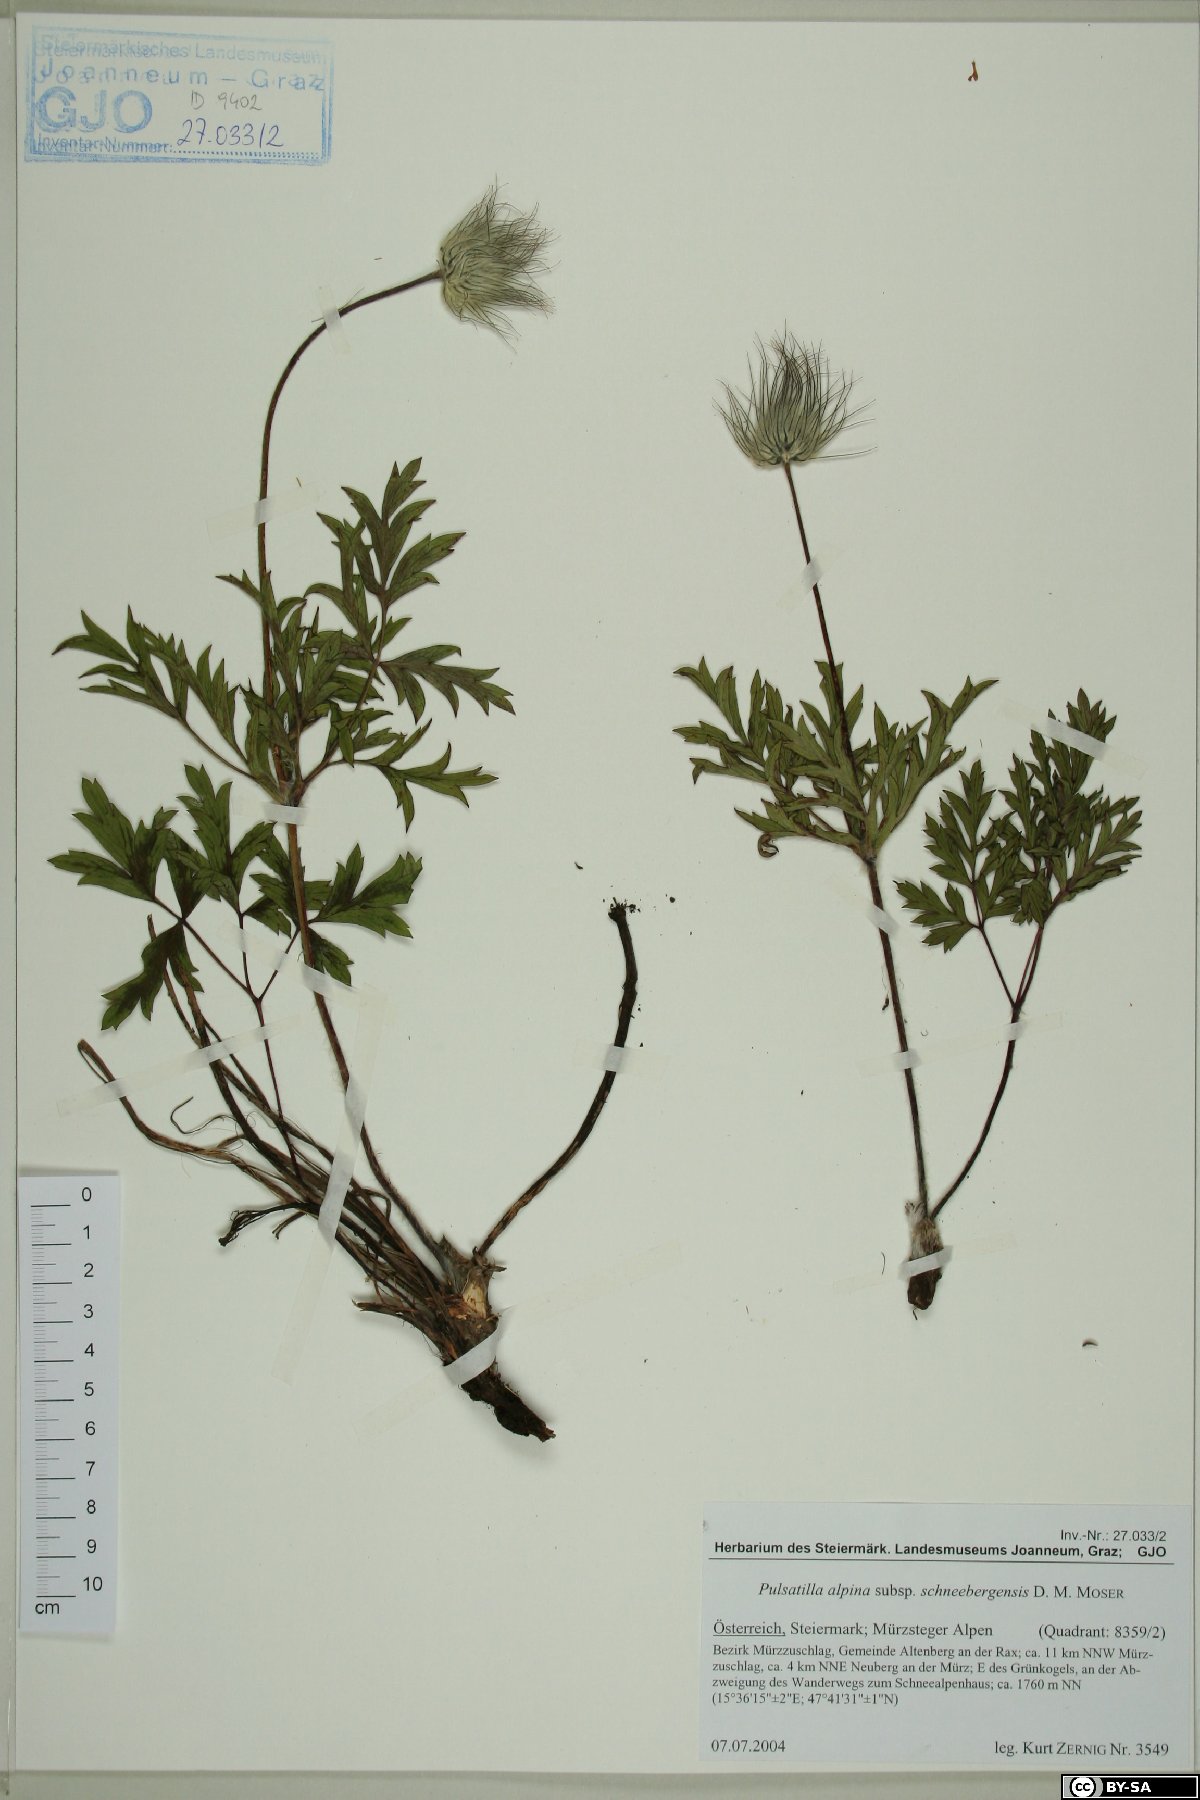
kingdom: Plantae
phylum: Tracheophyta
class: Magnoliopsida
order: Ranunculales
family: Ranunculaceae
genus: Pulsatilla
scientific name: Pulsatilla alpina
